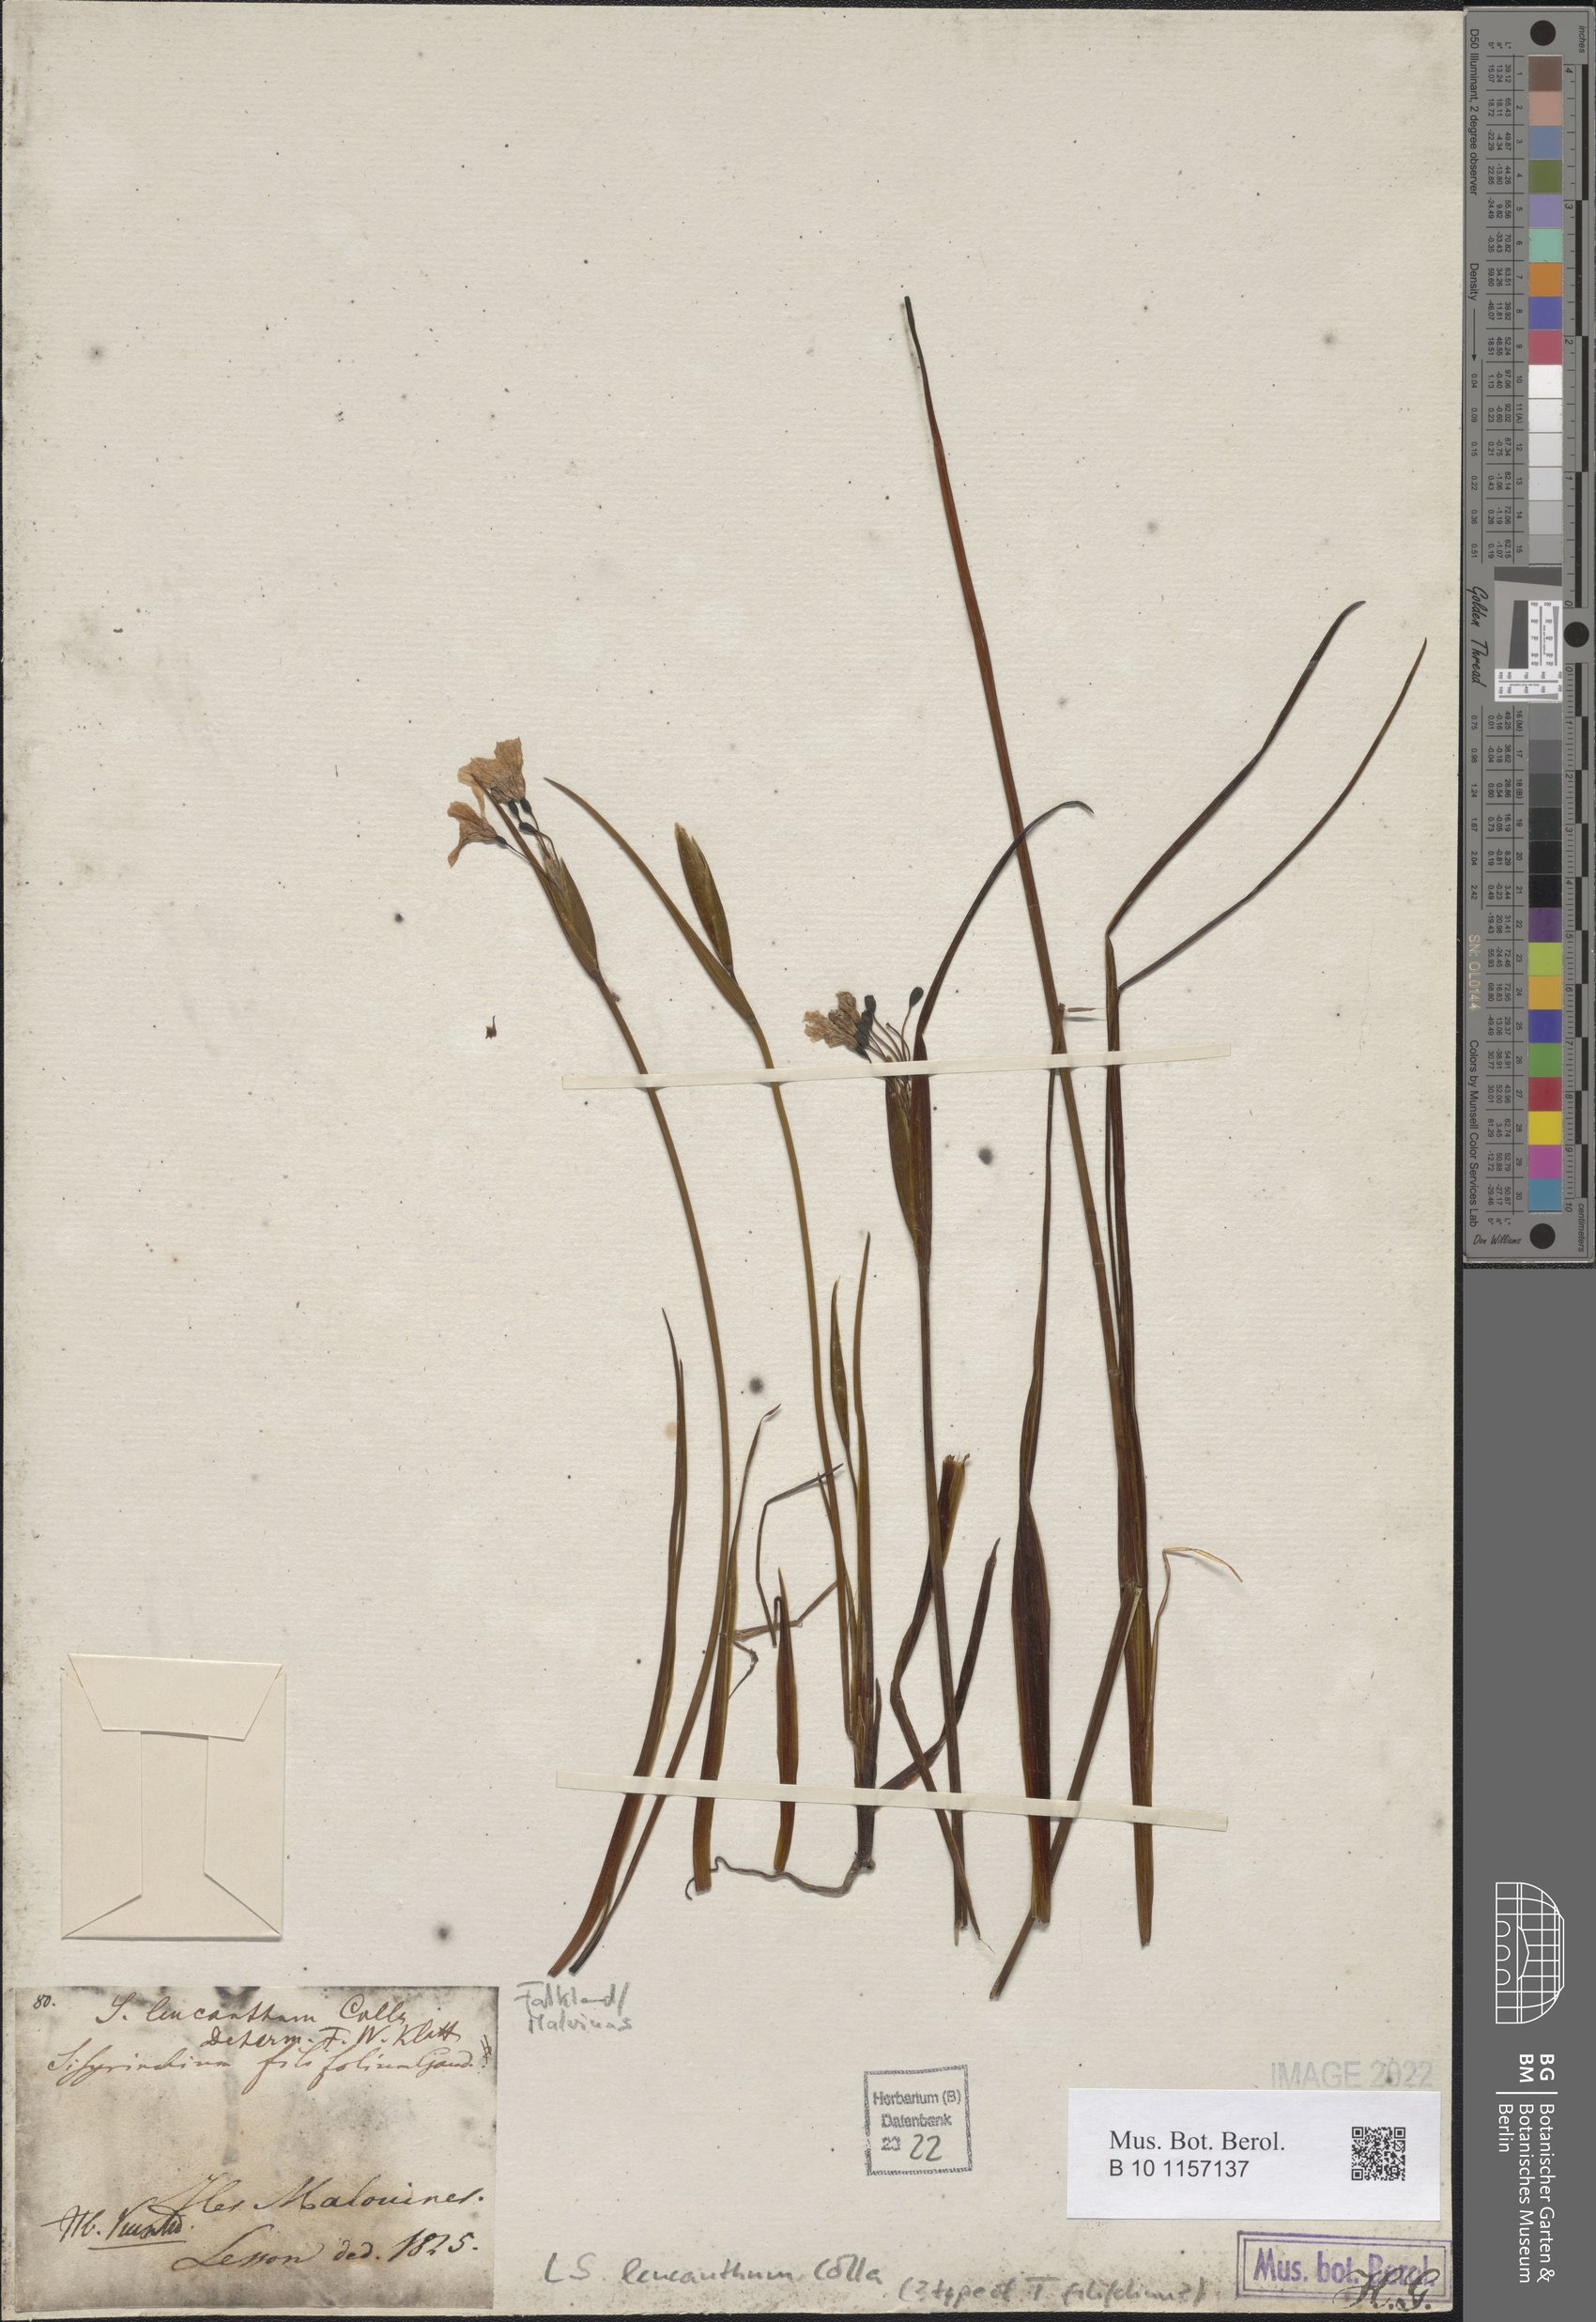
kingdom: Plantae
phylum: Tracheophyta
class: Liliopsida
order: Asparagales
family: Iridaceae
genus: Olsynium
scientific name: Olsynium scirpoideum
